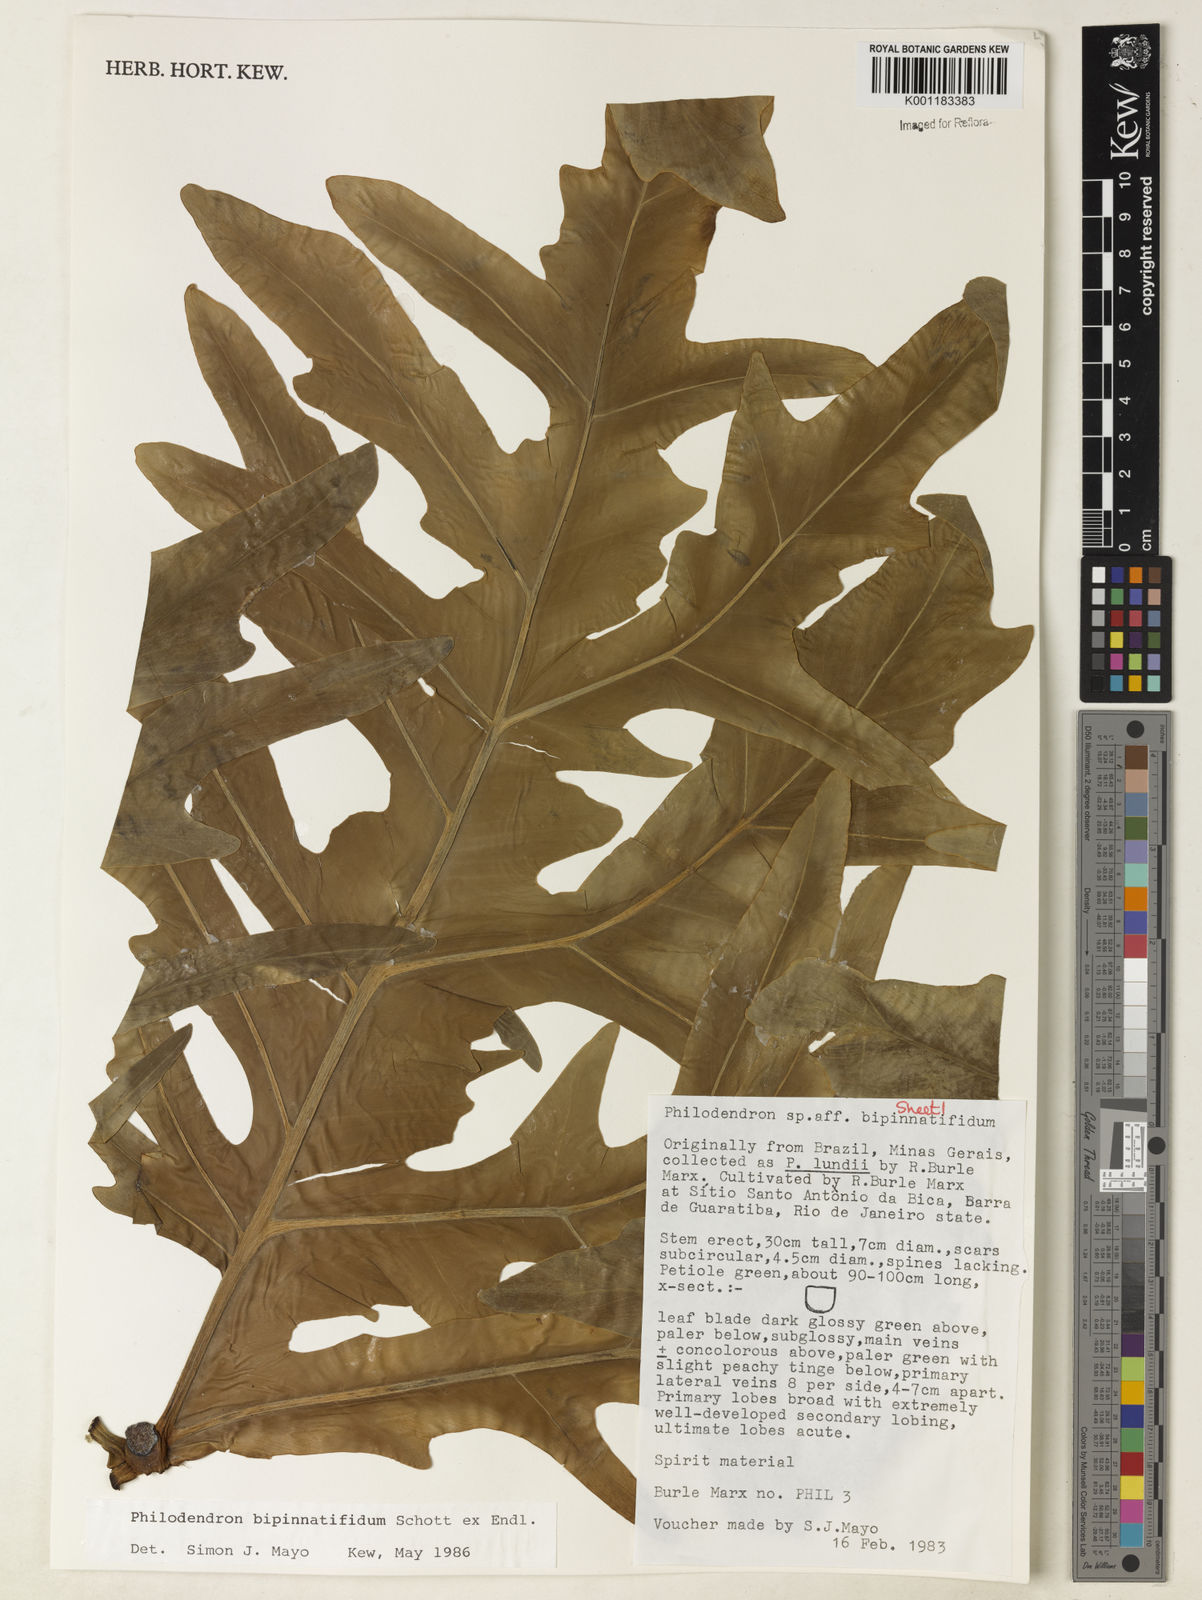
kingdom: Plantae
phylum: Tracheophyta
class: Liliopsida
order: Alismatales
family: Araceae
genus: Philodendron
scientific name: Philodendron
